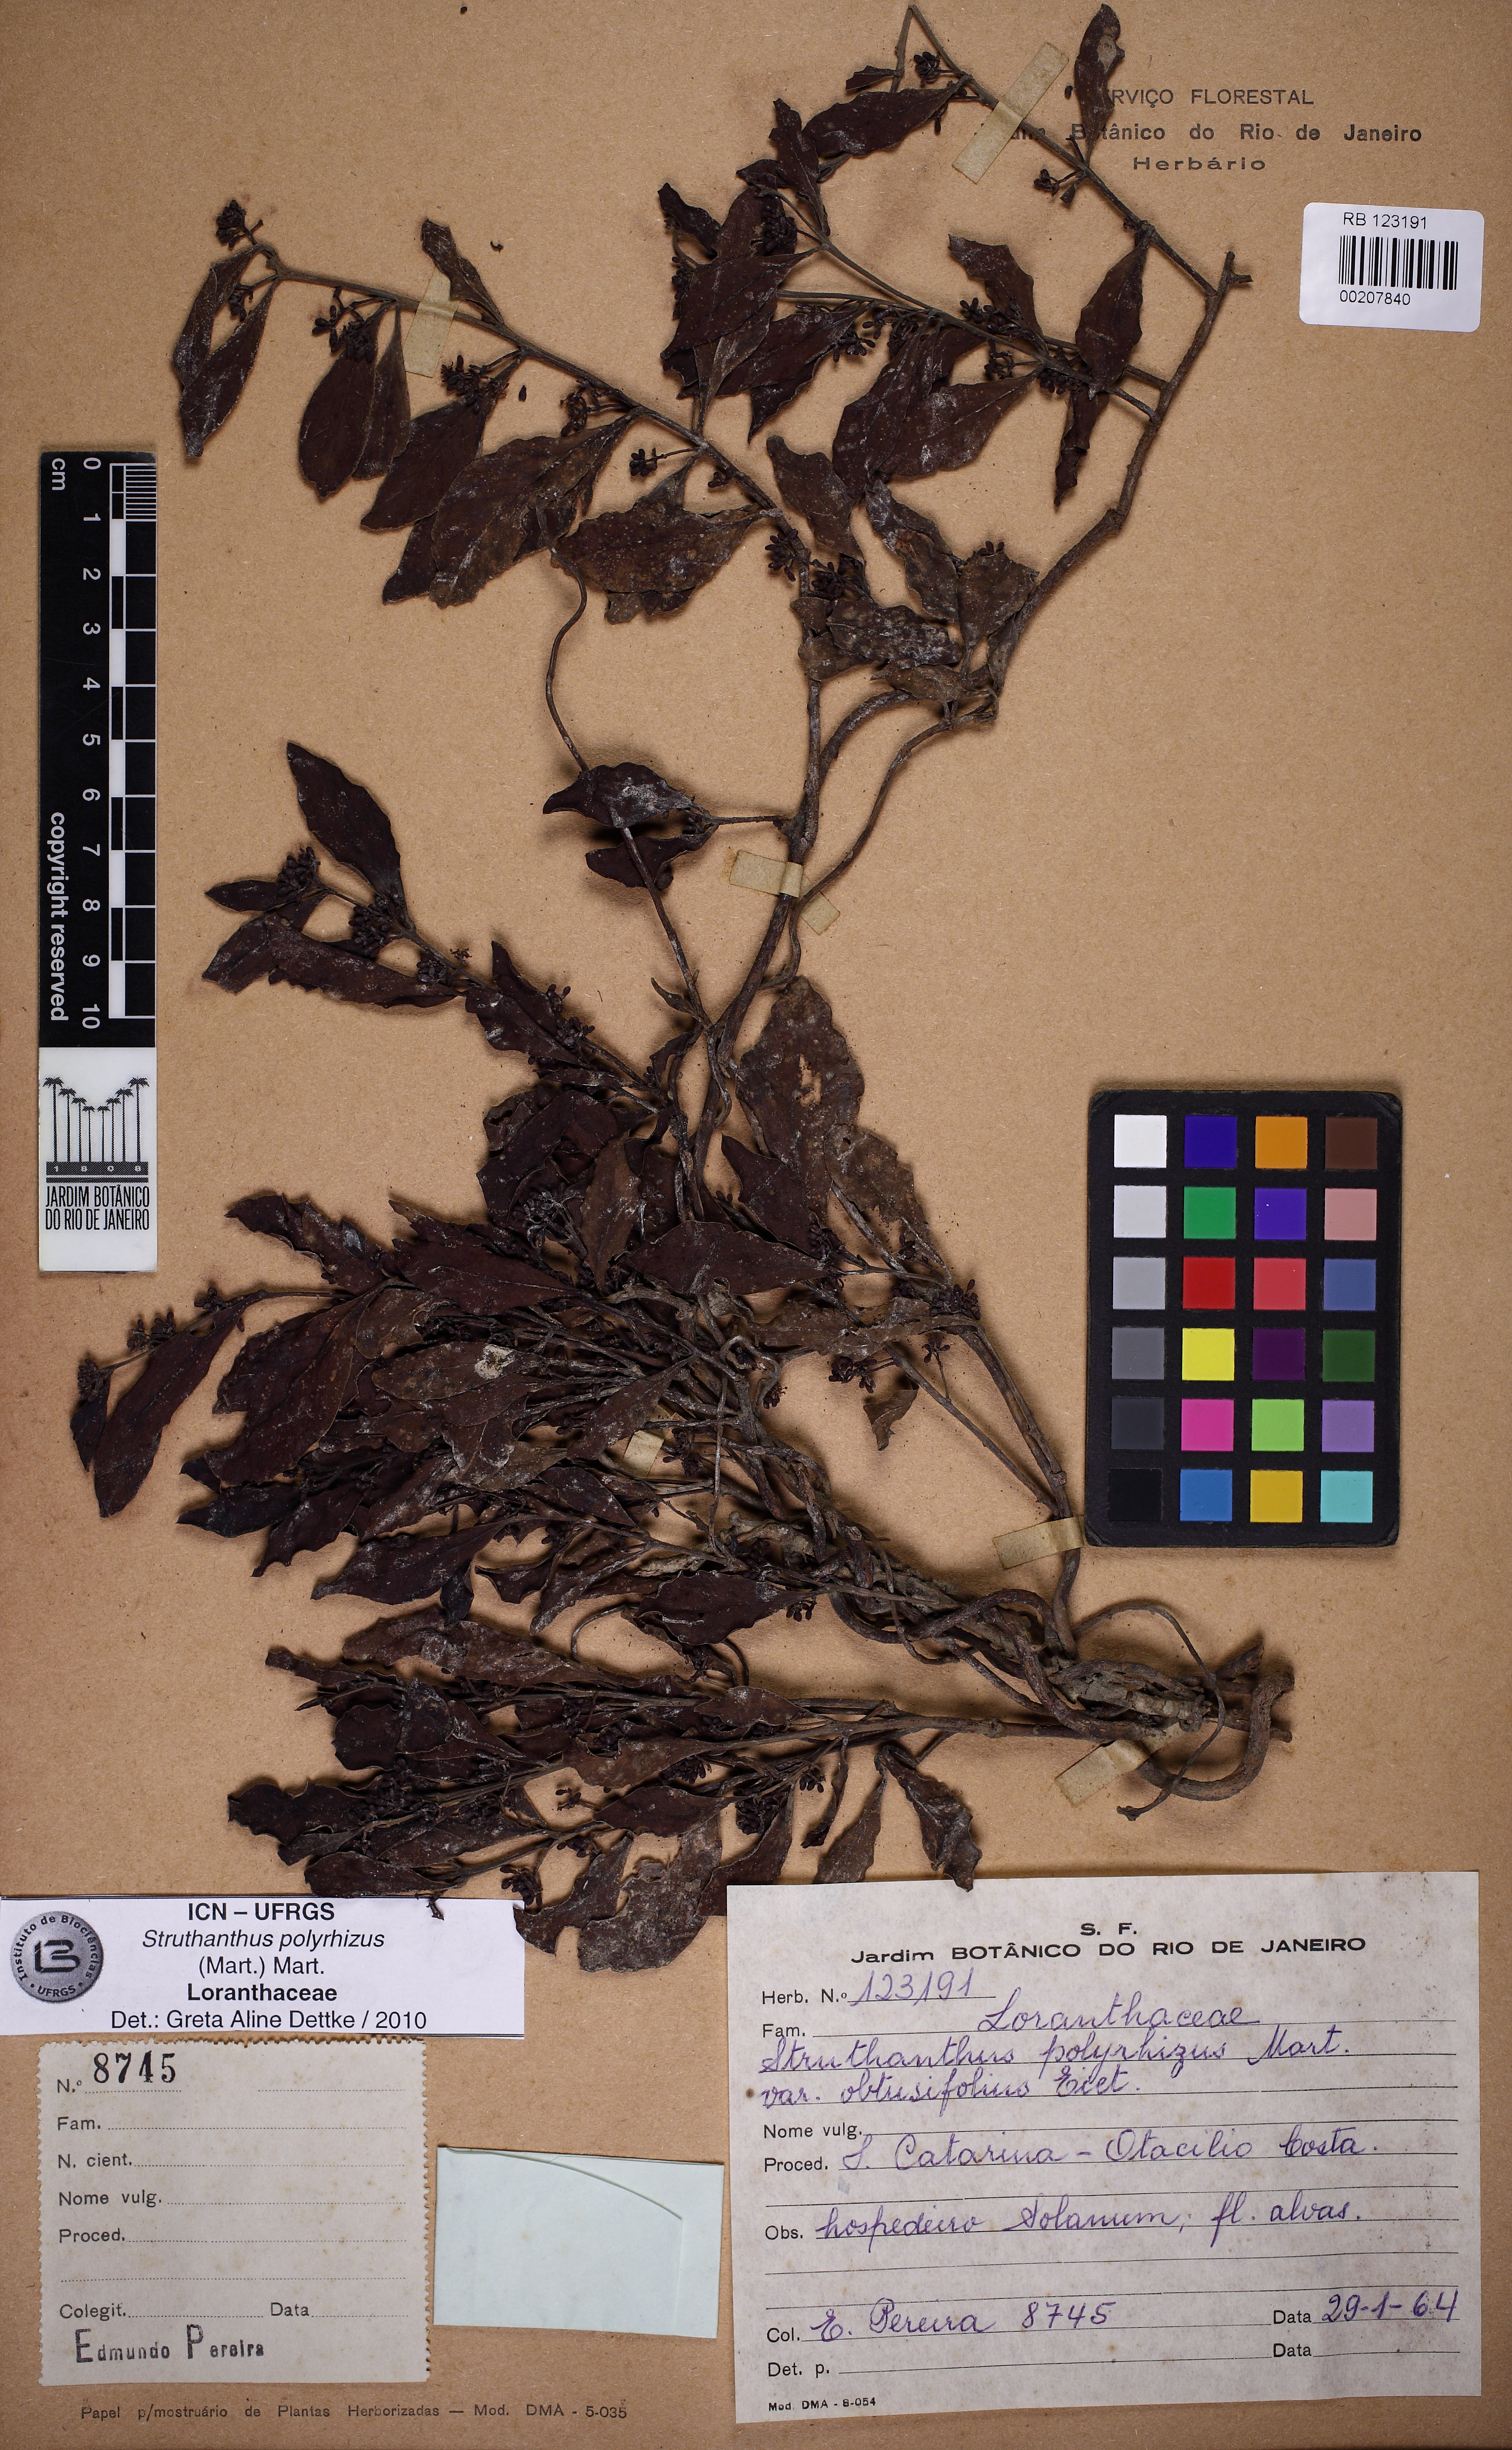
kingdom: Plantae
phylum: Tracheophyta
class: Magnoliopsida
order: Santalales
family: Loranthaceae
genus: Struthanthus
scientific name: Struthanthus retusus
